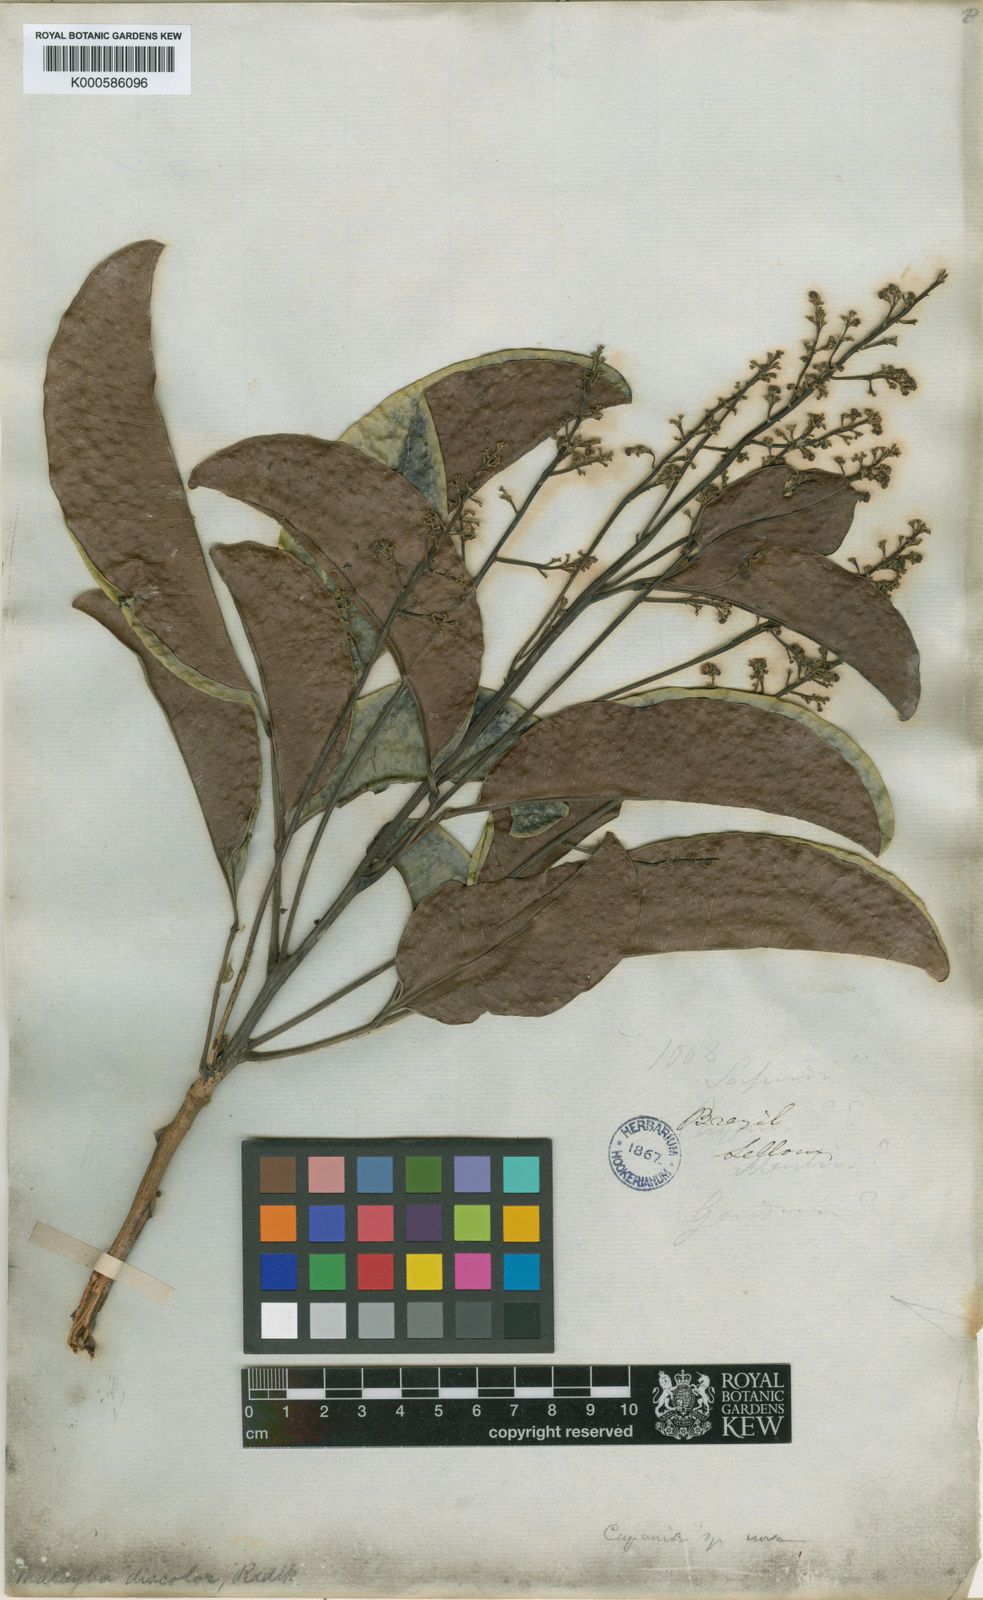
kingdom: Plantae
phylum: Tracheophyta
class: Magnoliopsida
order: Sapindales
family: Sapindaceae
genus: Matayba
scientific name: Matayba discolor
